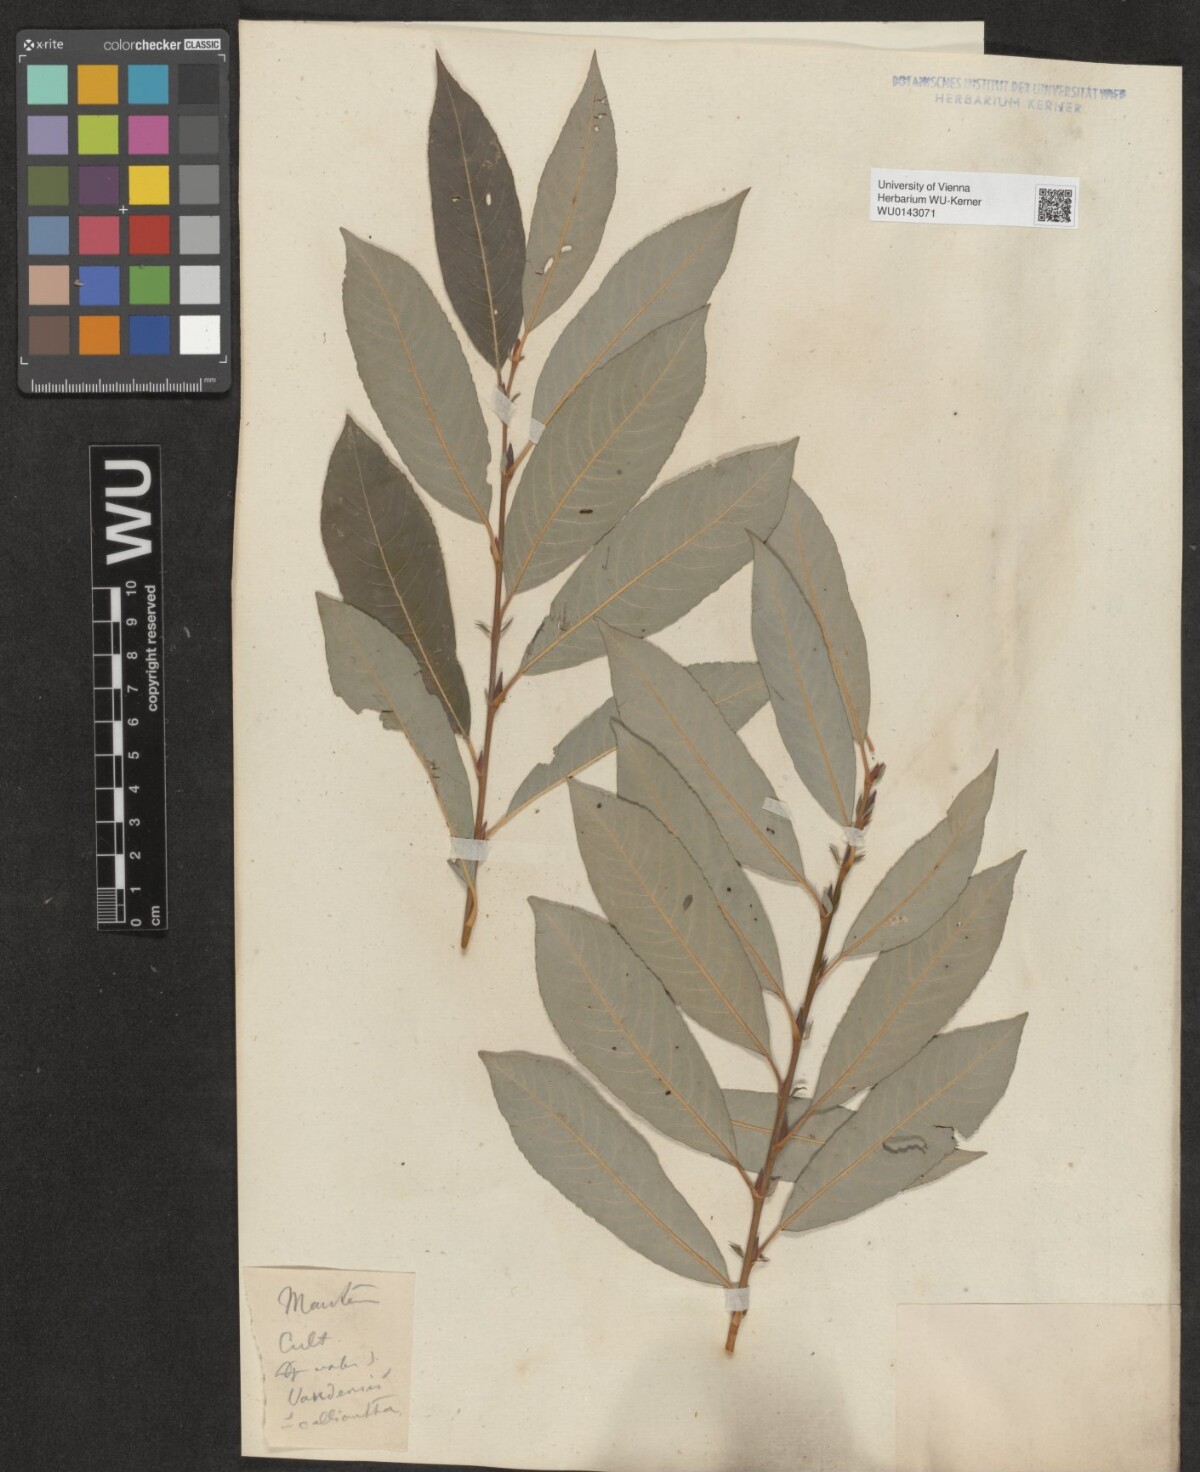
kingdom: Plantae
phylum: Tracheophyta
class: Magnoliopsida
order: Malpighiales
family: Salicaceae
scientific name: Salicaceae
